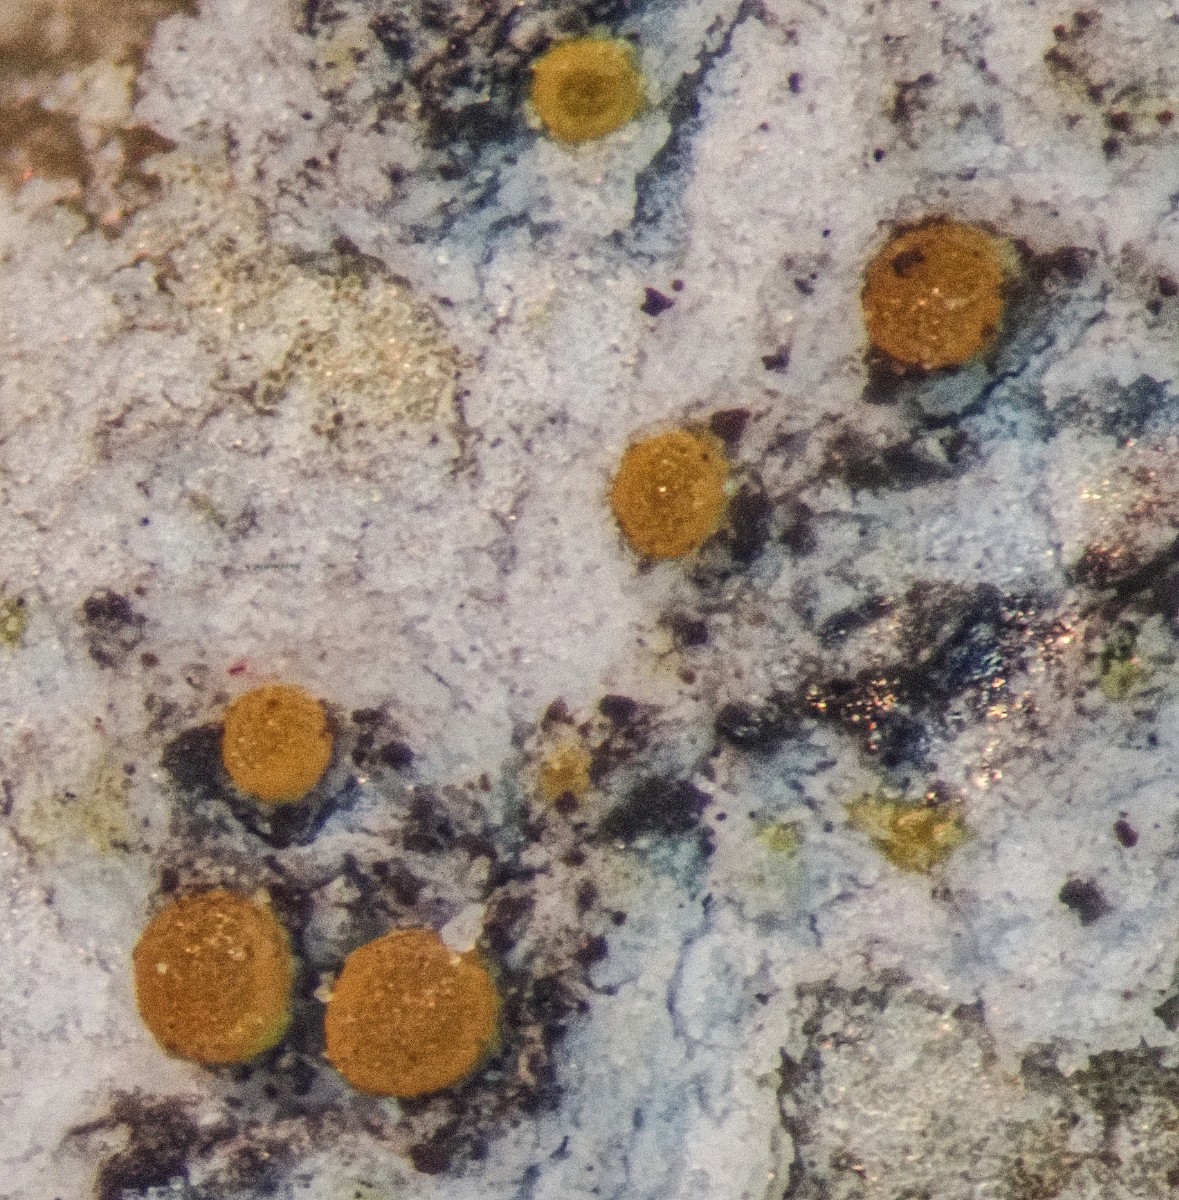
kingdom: Fungi
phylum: Ascomycota
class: Lecanoromycetes
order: Teloschistales
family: Teloschistaceae
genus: Athallia
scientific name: Athallia cerinelloides
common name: citrongul orangelav
